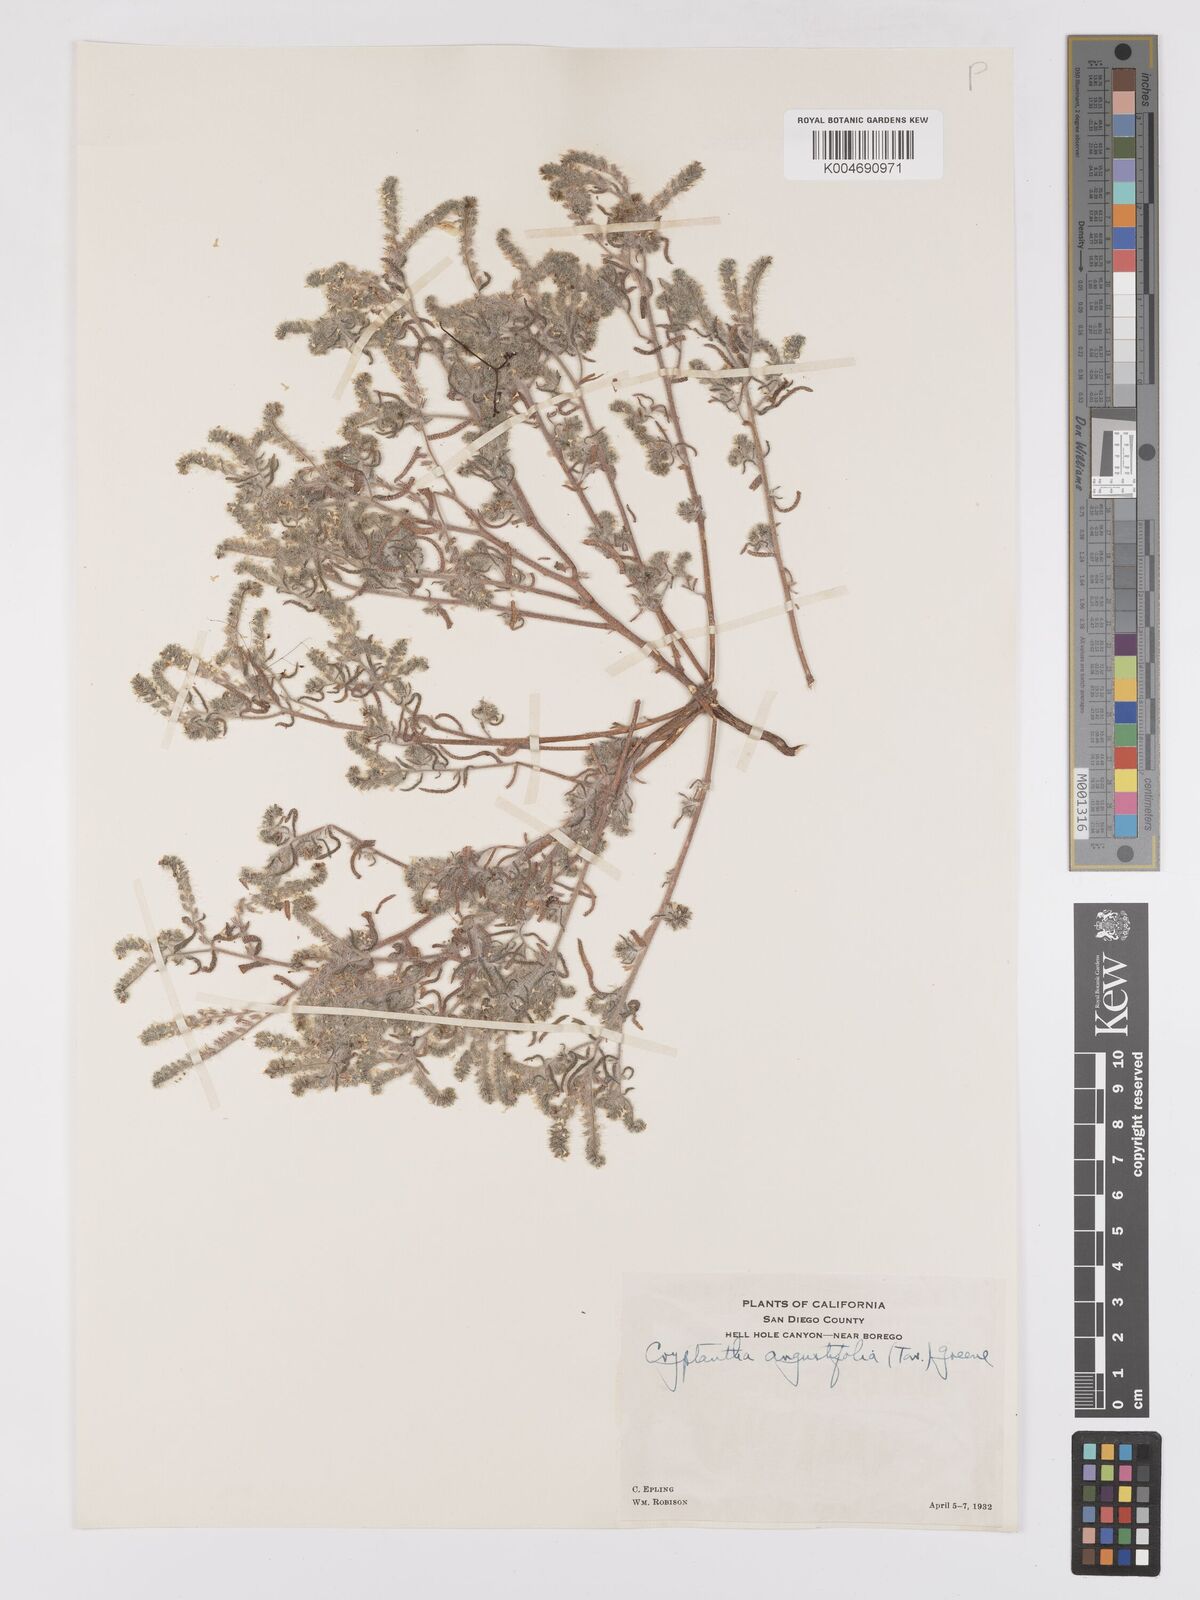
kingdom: Plantae
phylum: Tracheophyta
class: Magnoliopsida
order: Boraginales
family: Boraginaceae
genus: Johnstonella
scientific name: Johnstonella angustifolia
